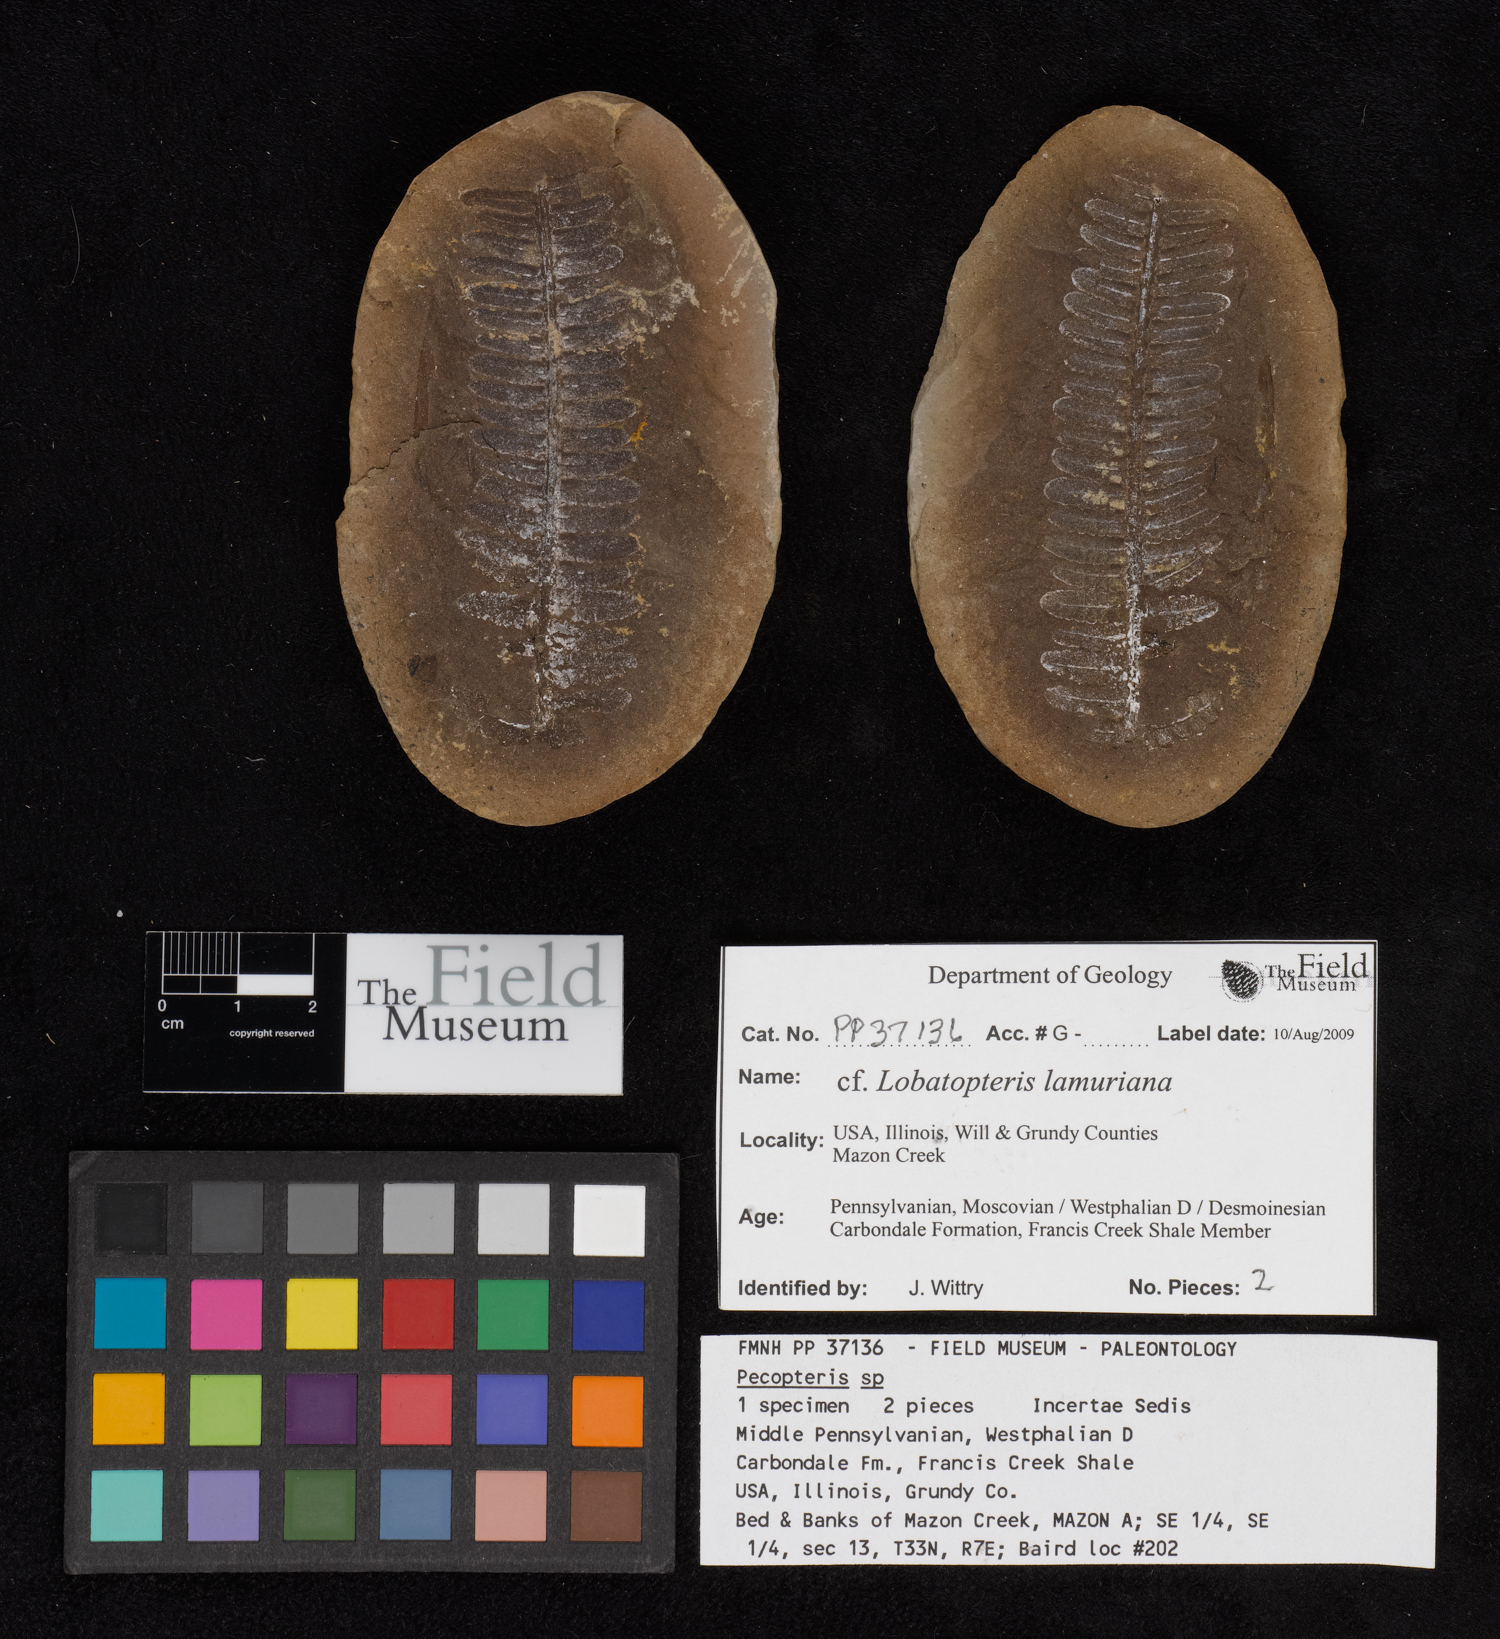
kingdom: Plantae
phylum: Tracheophyta
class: Polypodiopsida
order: Marattiales
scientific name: Marattiales
